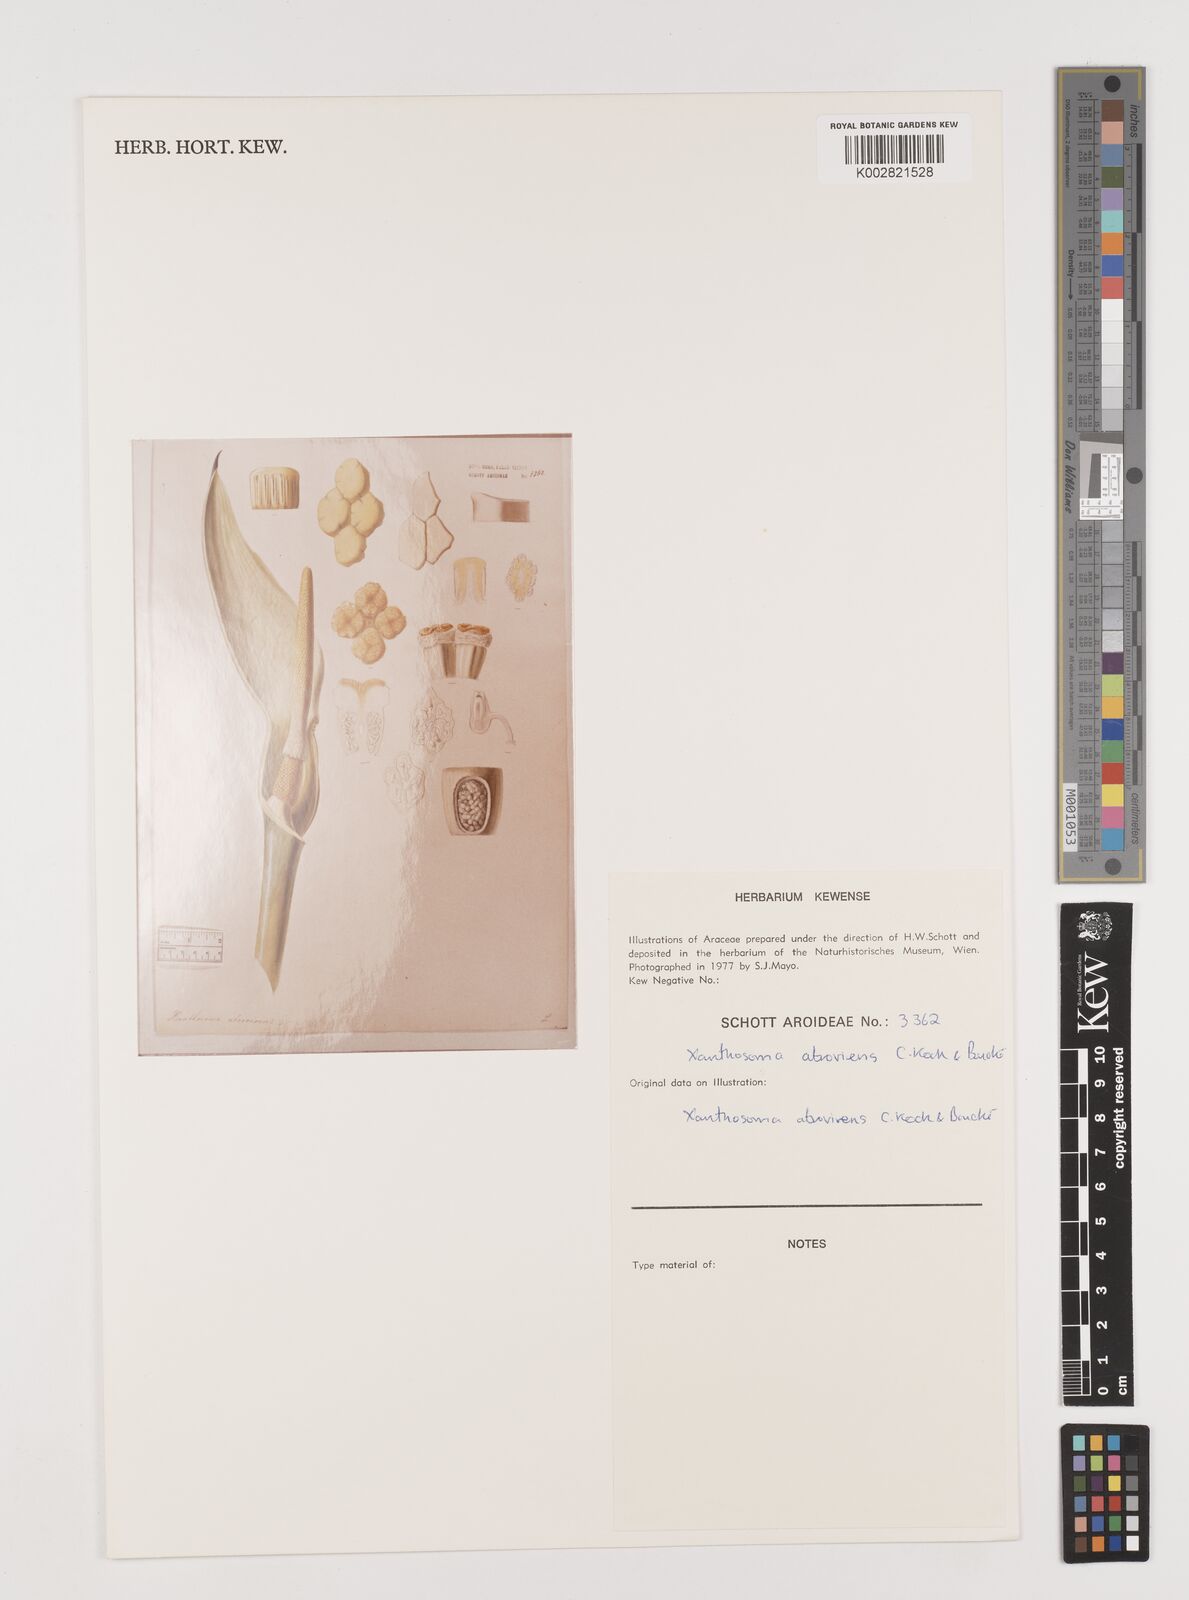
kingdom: Plantae
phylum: Tracheophyta
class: Liliopsida
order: Alismatales
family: Araceae
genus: Xanthosoma
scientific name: Xanthosoma sagittifolium
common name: Arrowleaf elephant's ear
